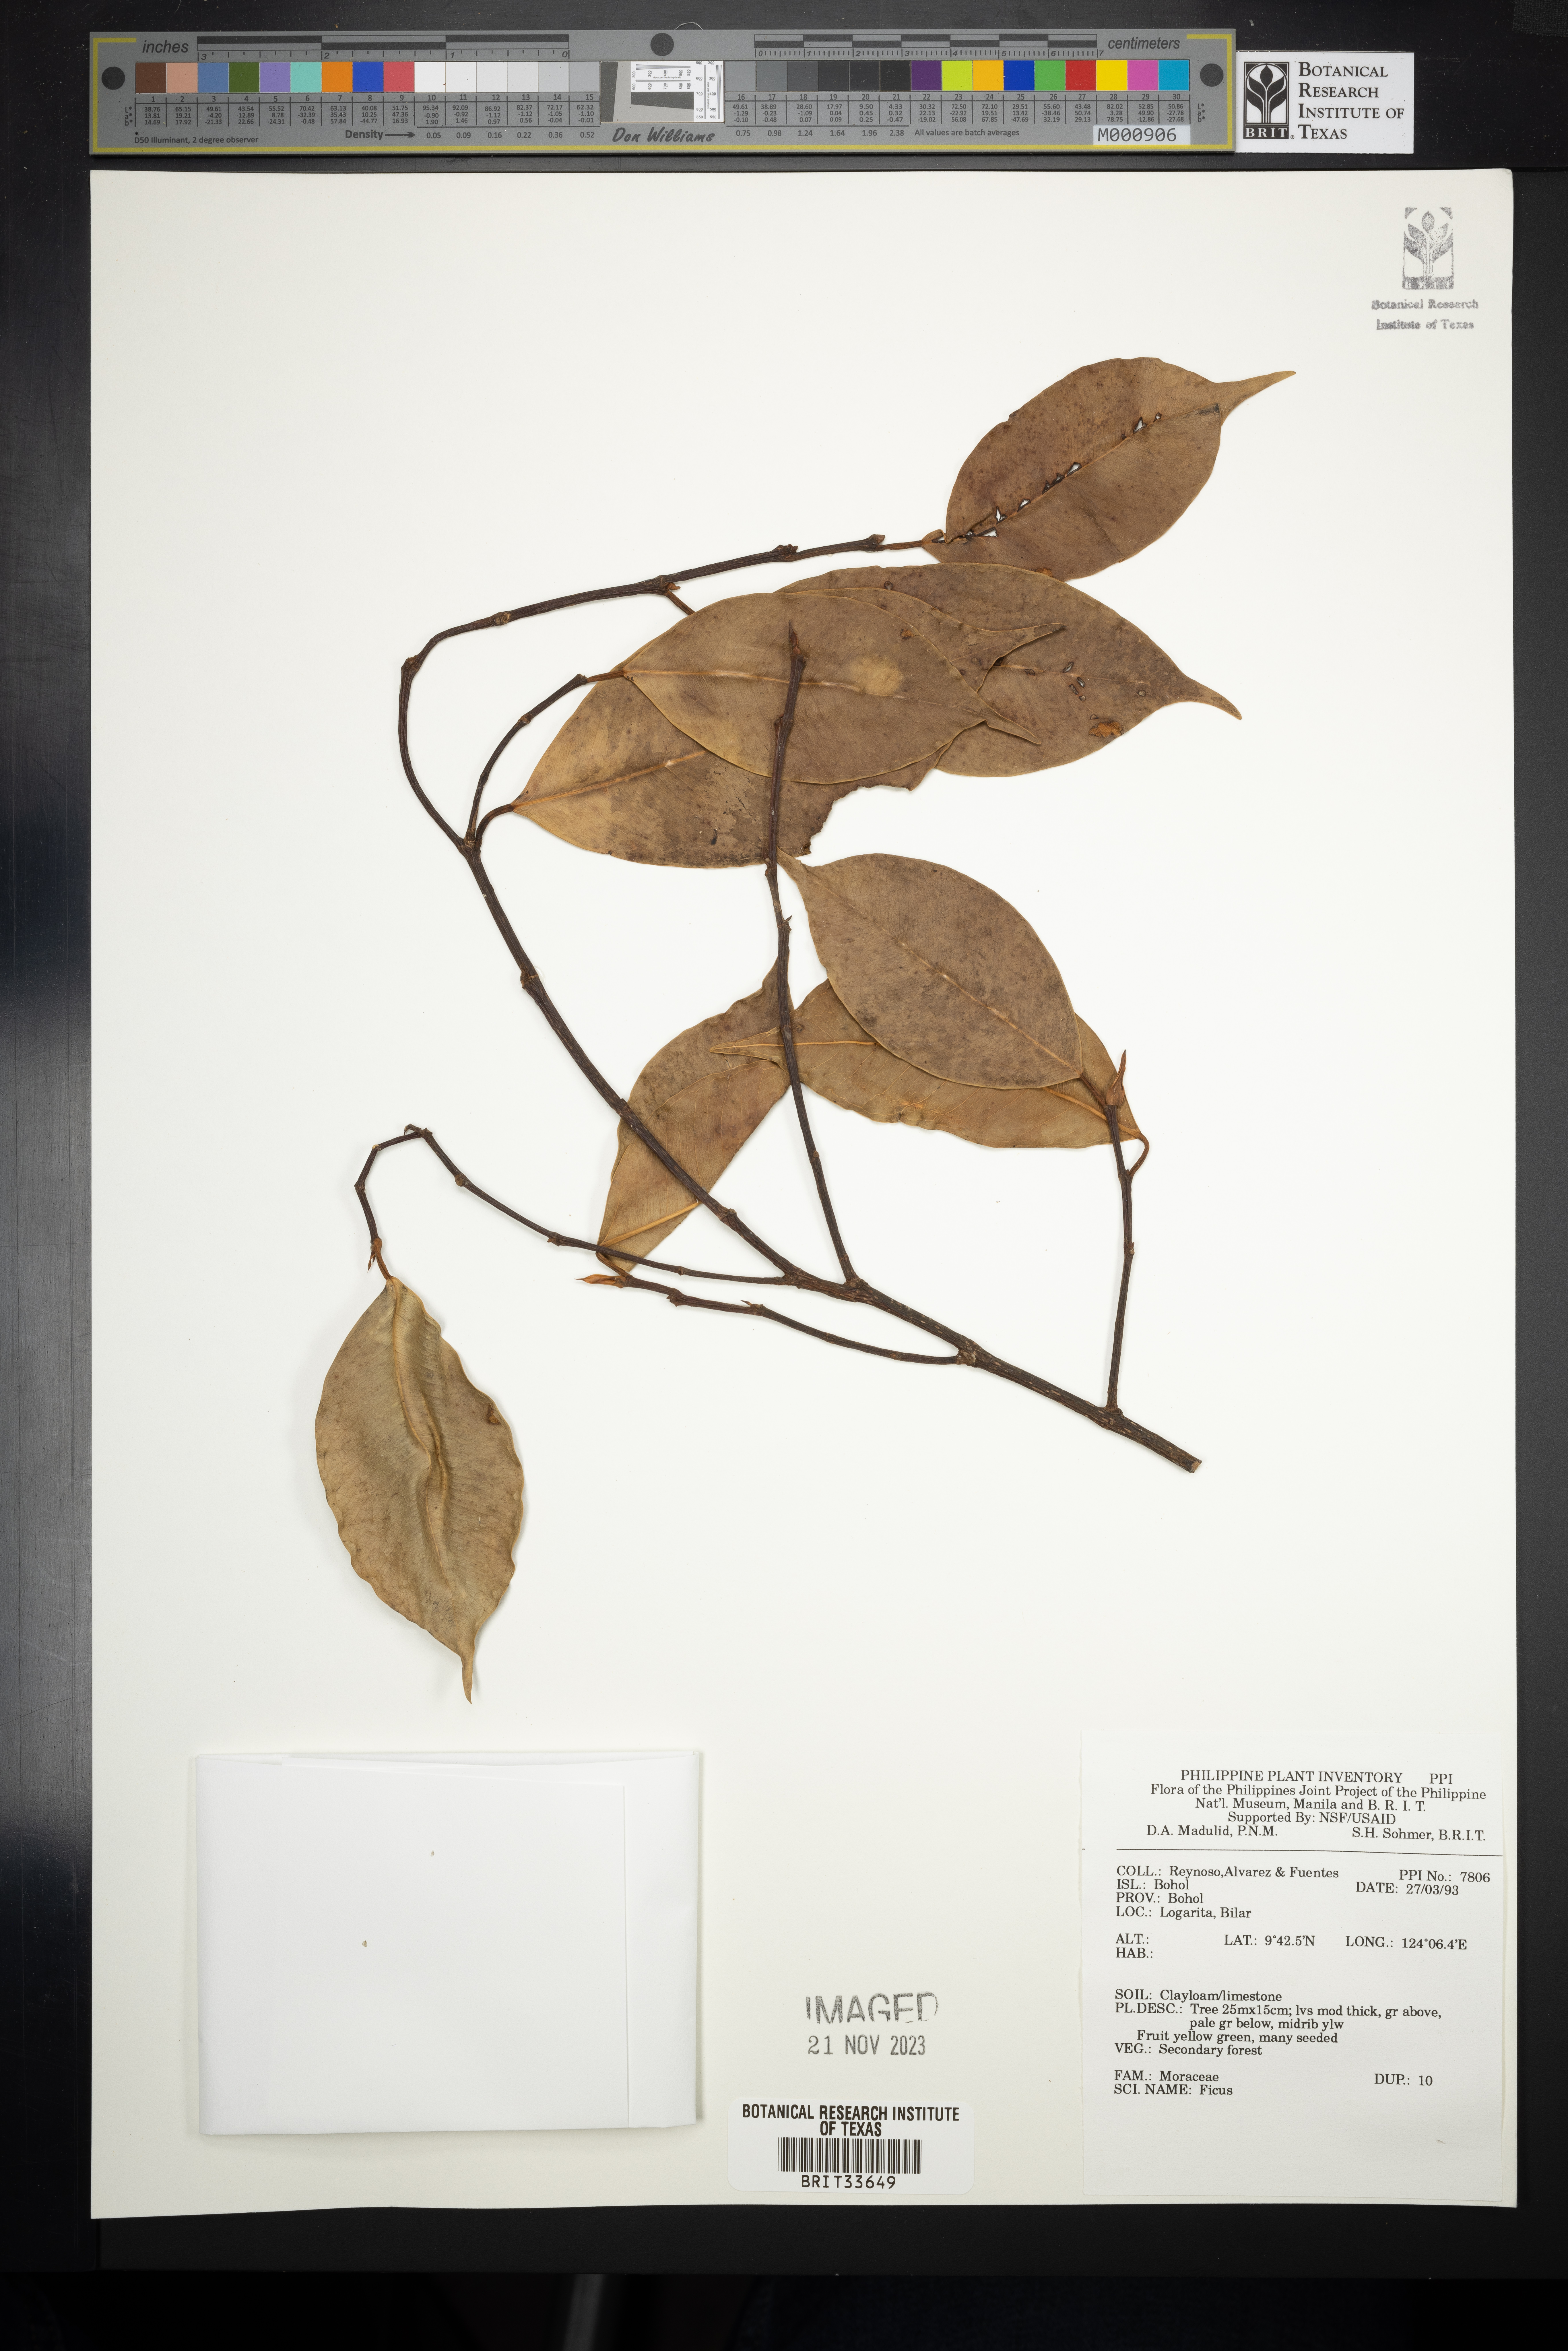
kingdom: Plantae
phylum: Tracheophyta
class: Magnoliopsida
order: Rosales
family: Moraceae
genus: Ficus
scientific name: Ficus
